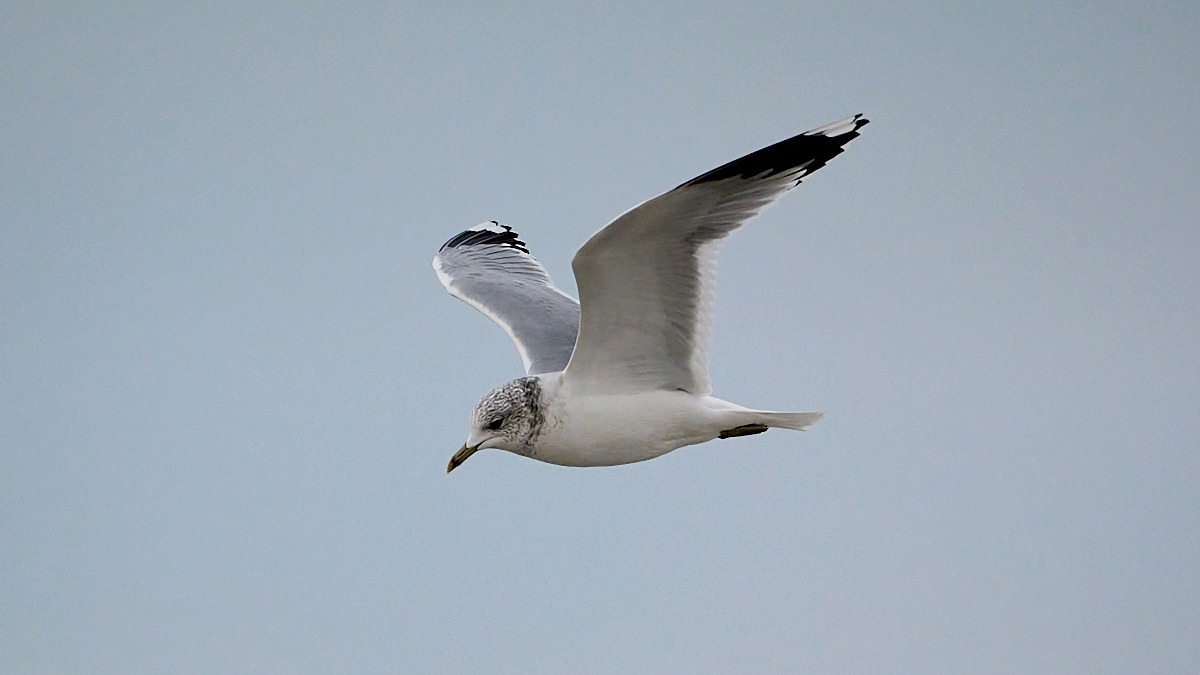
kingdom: Animalia
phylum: Chordata
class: Aves
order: Charadriiformes
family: Laridae
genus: Larus
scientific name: Larus canus
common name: Stormmåge
